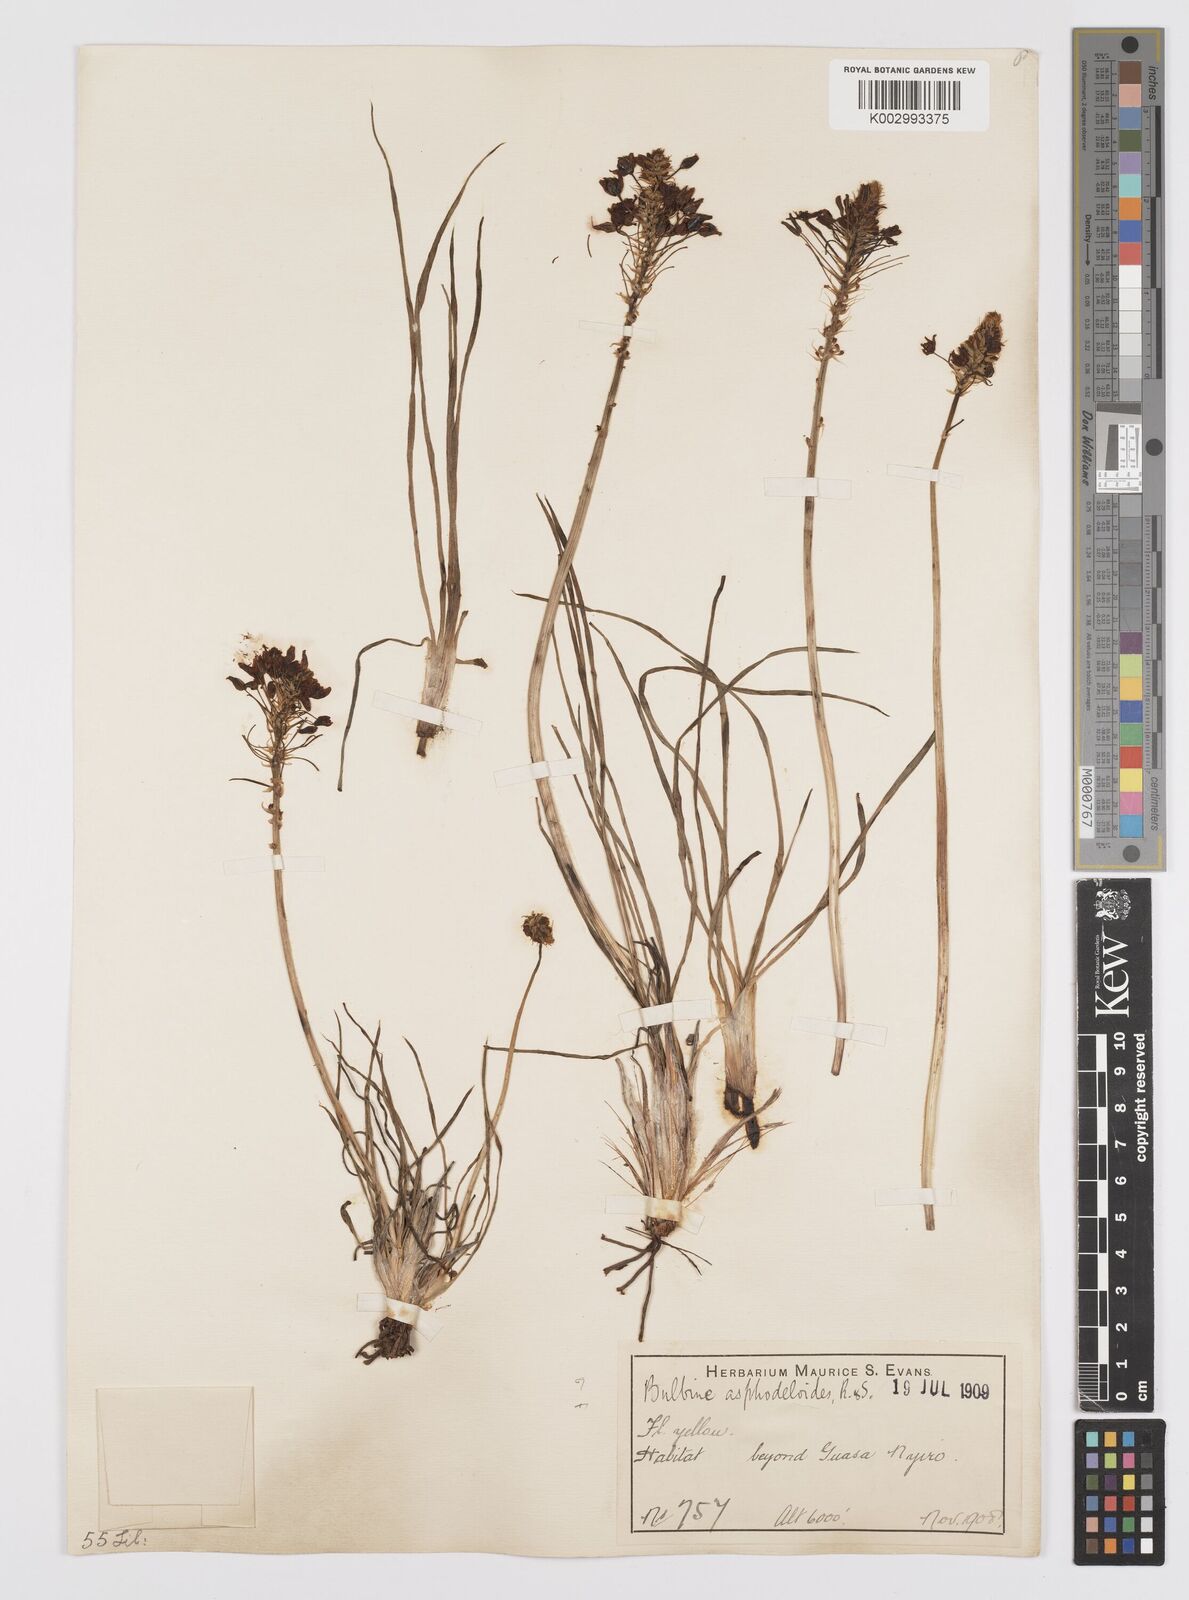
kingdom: Plantae
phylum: Tracheophyta
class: Liliopsida
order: Asparagales
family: Asphodelaceae
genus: Bulbine
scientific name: Bulbine abyssinica
